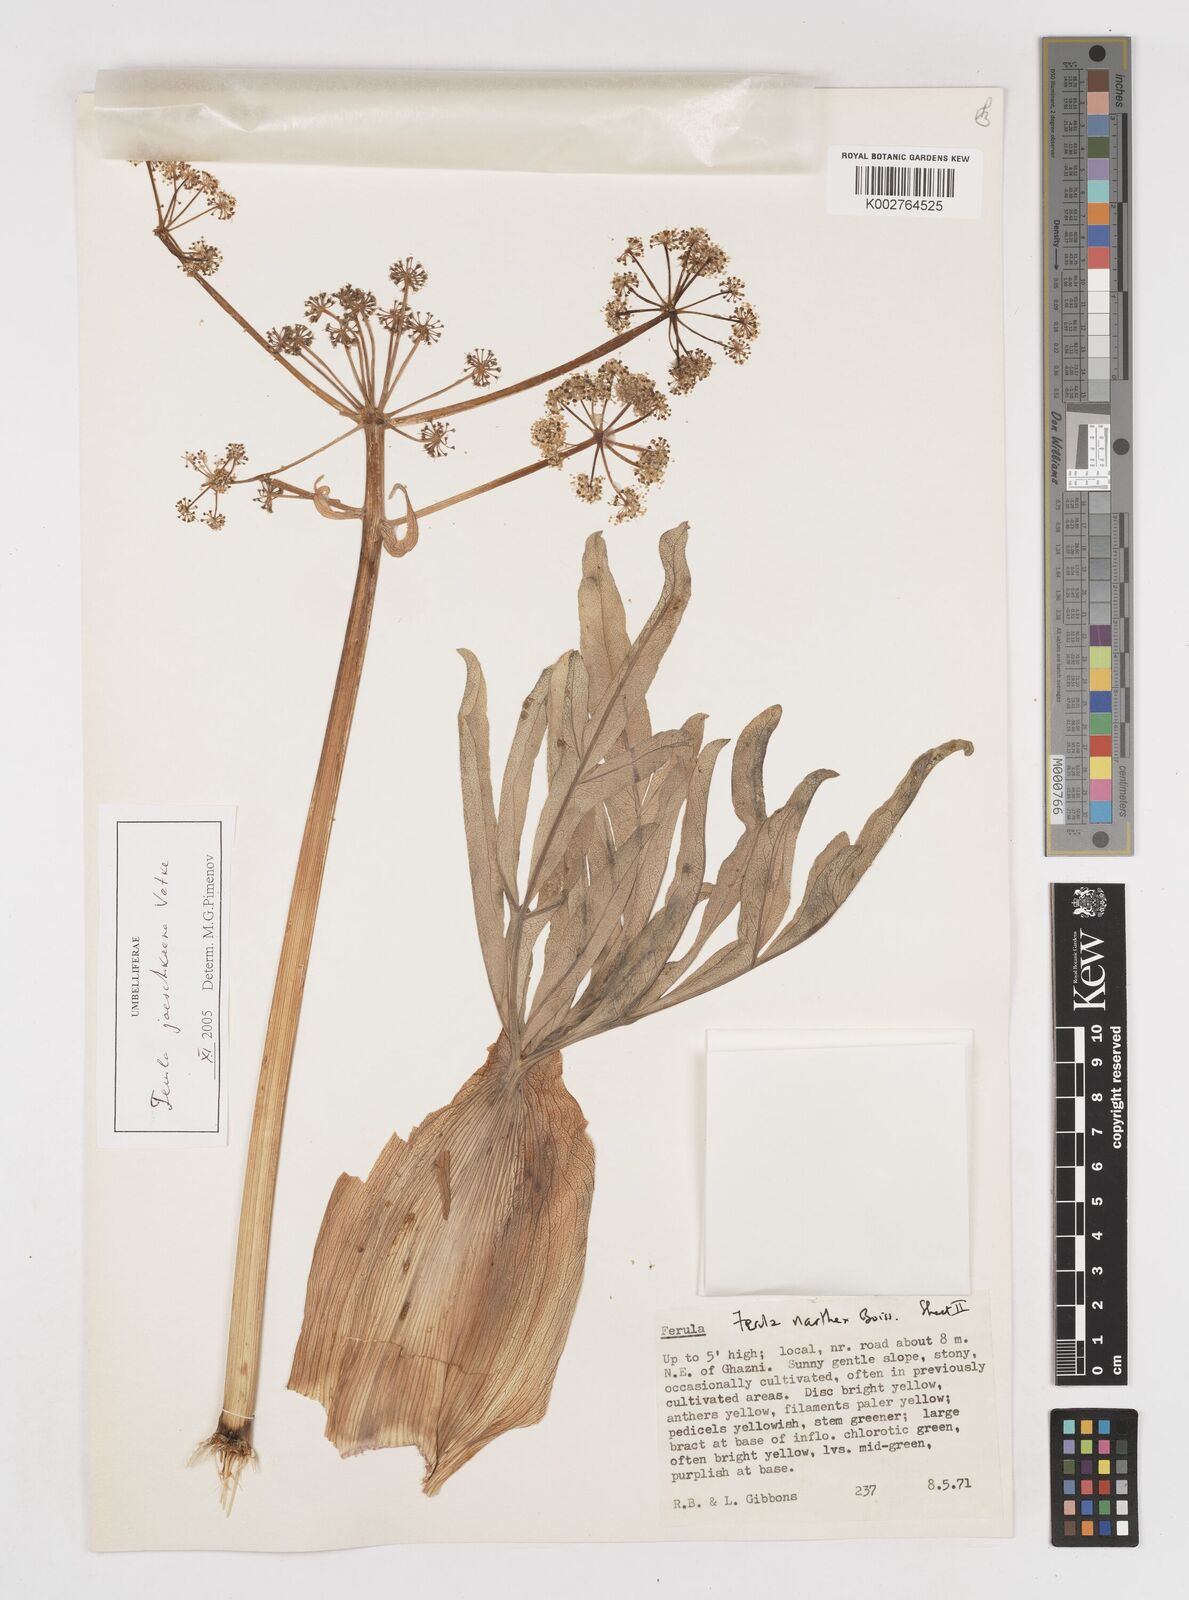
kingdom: Plantae
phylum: Tracheophyta
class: Magnoliopsida
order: Apiales
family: Apiaceae
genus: Ferula
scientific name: Ferula jaeschkeana
